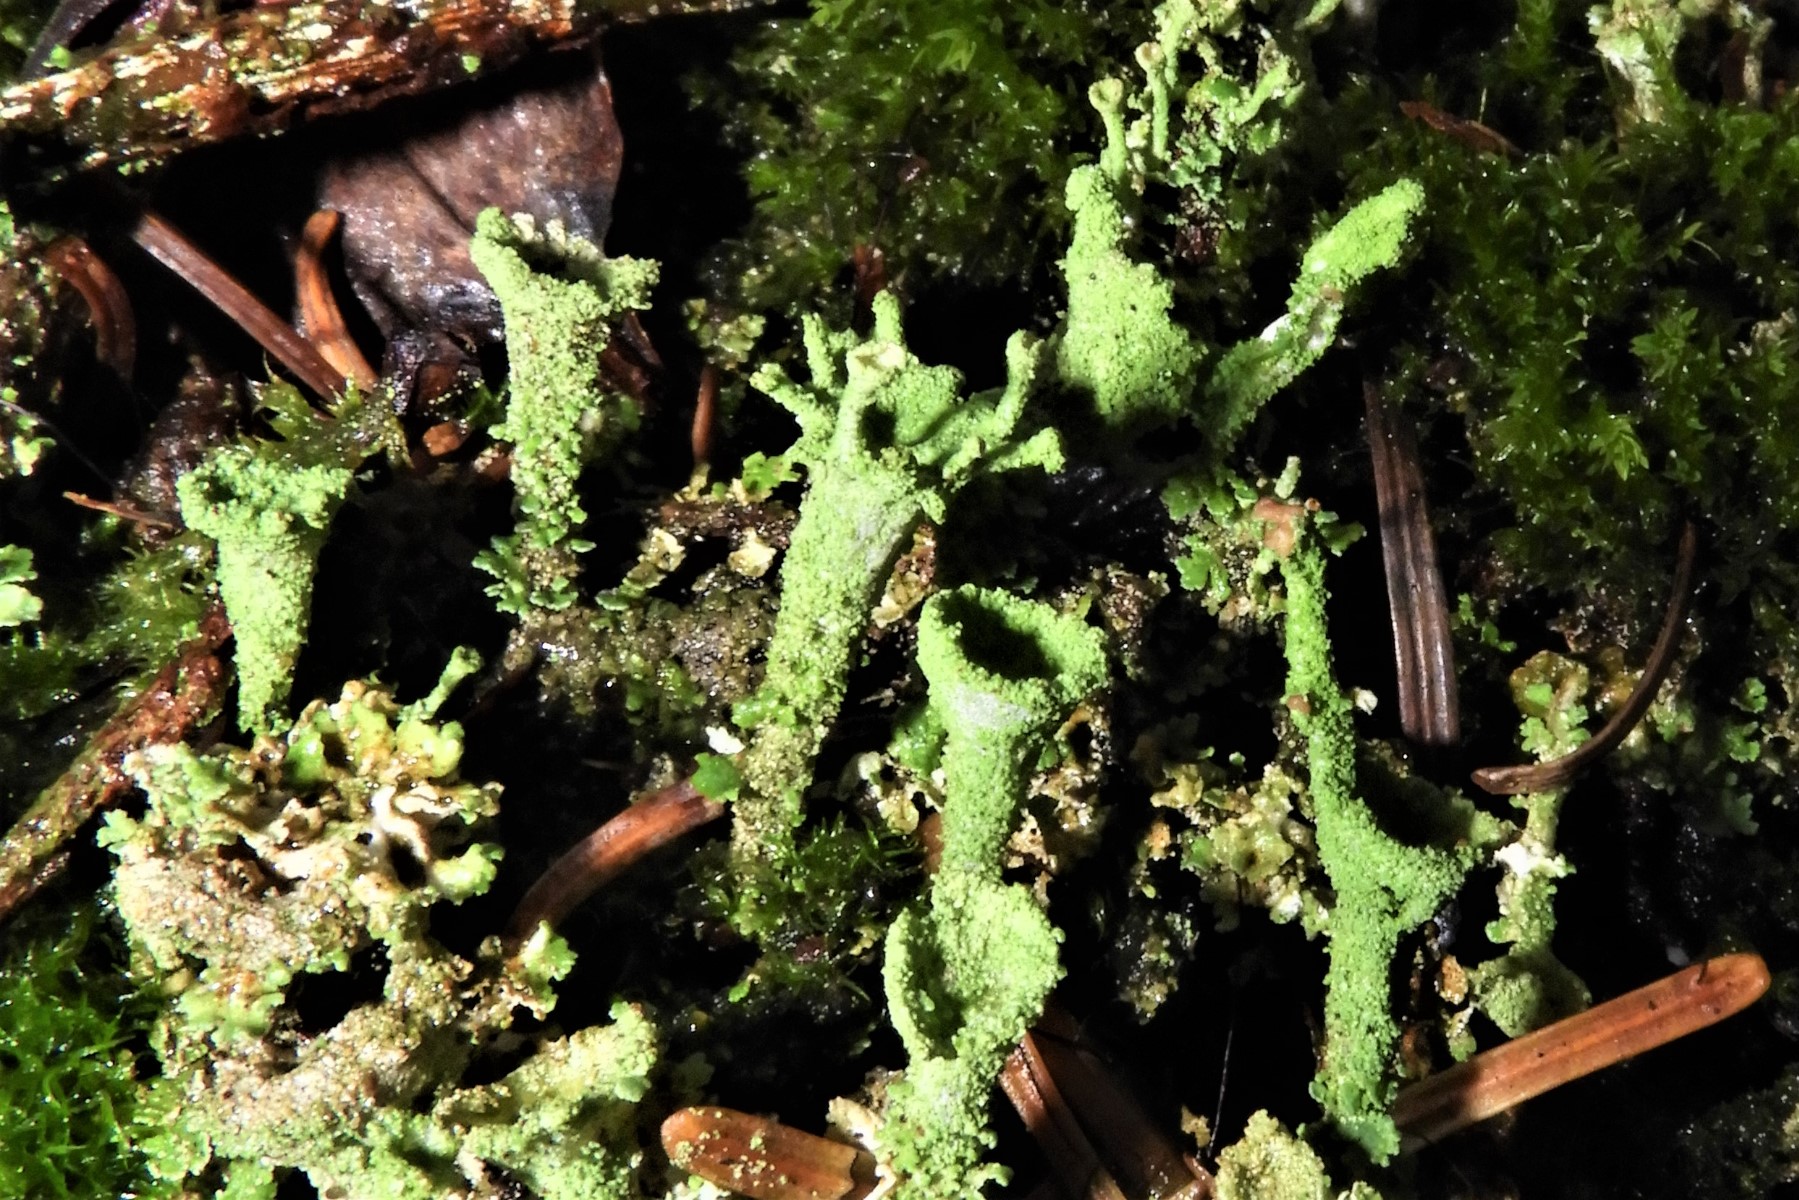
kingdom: Fungi
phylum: Ascomycota
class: Lecanoromycetes
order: Lecanorales
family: Cladoniaceae
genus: Cladonia
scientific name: Cladonia
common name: brungrøn bægerlav
